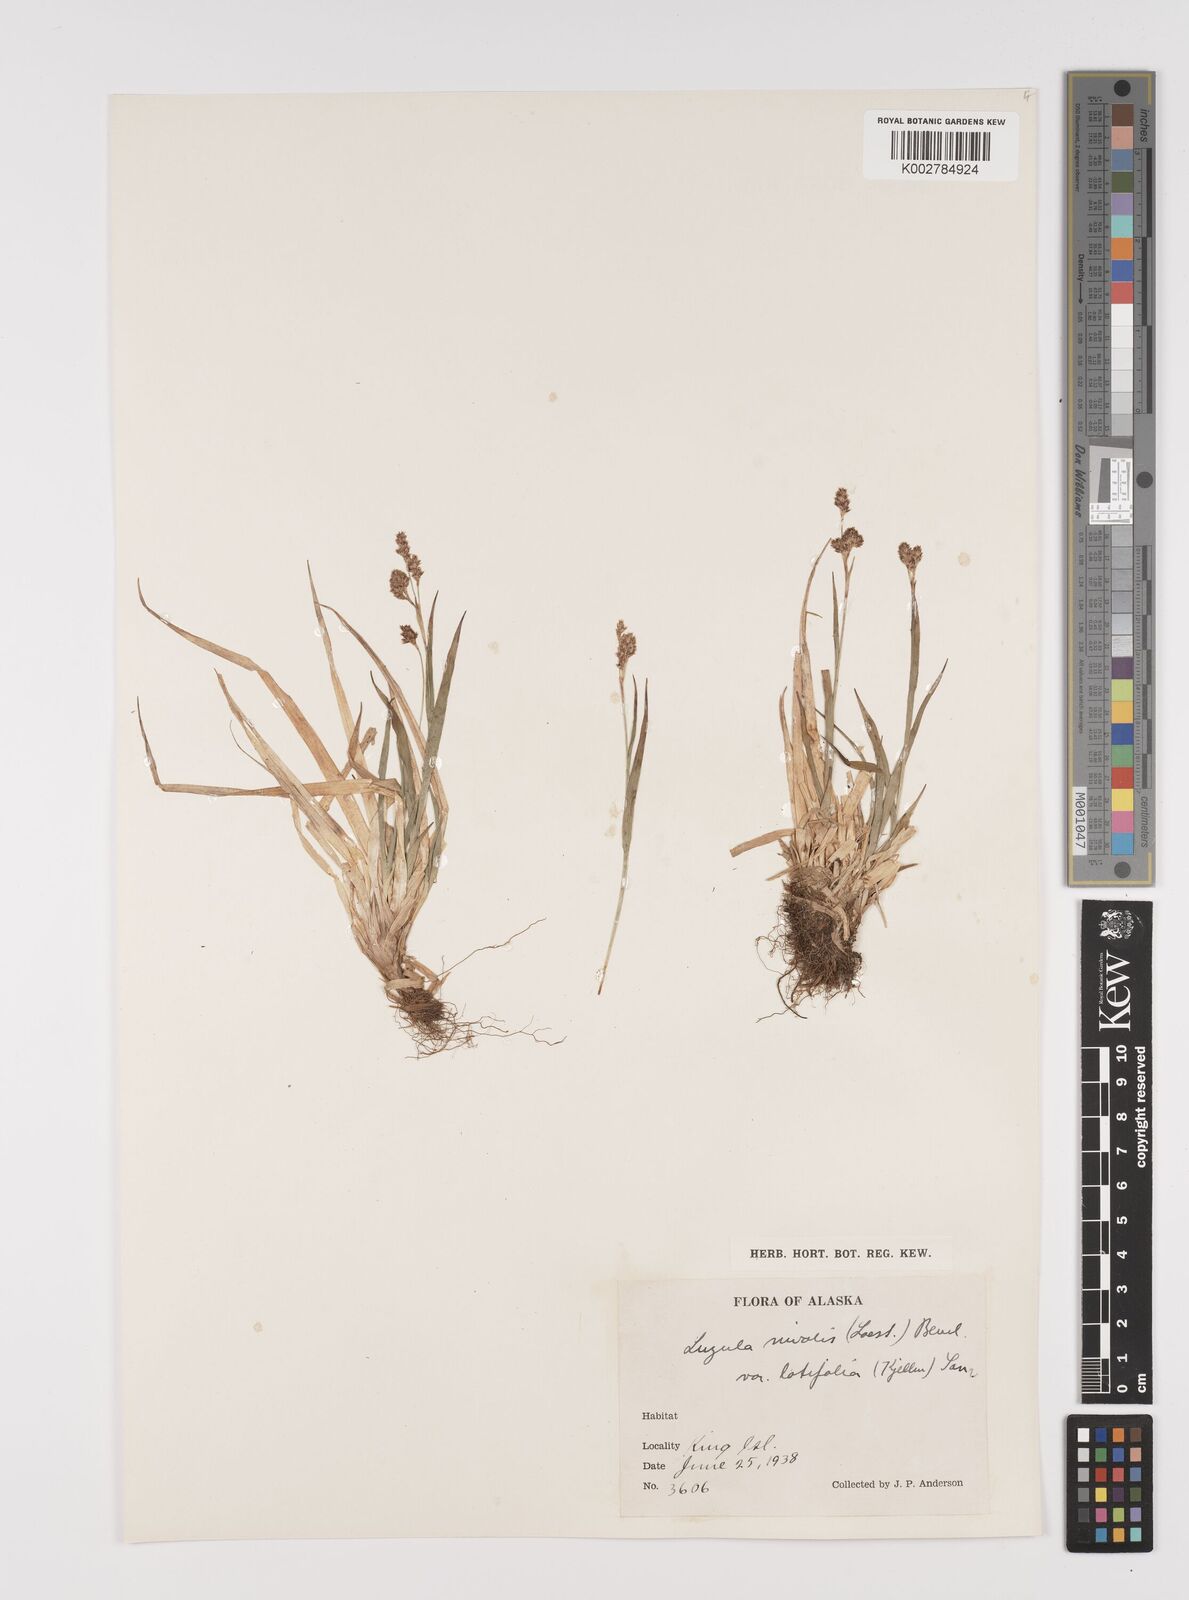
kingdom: Plantae
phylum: Tracheophyta
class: Liliopsida
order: Poales
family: Juncaceae
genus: Luzula
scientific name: Luzula nivalis
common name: Arctic woodrush
